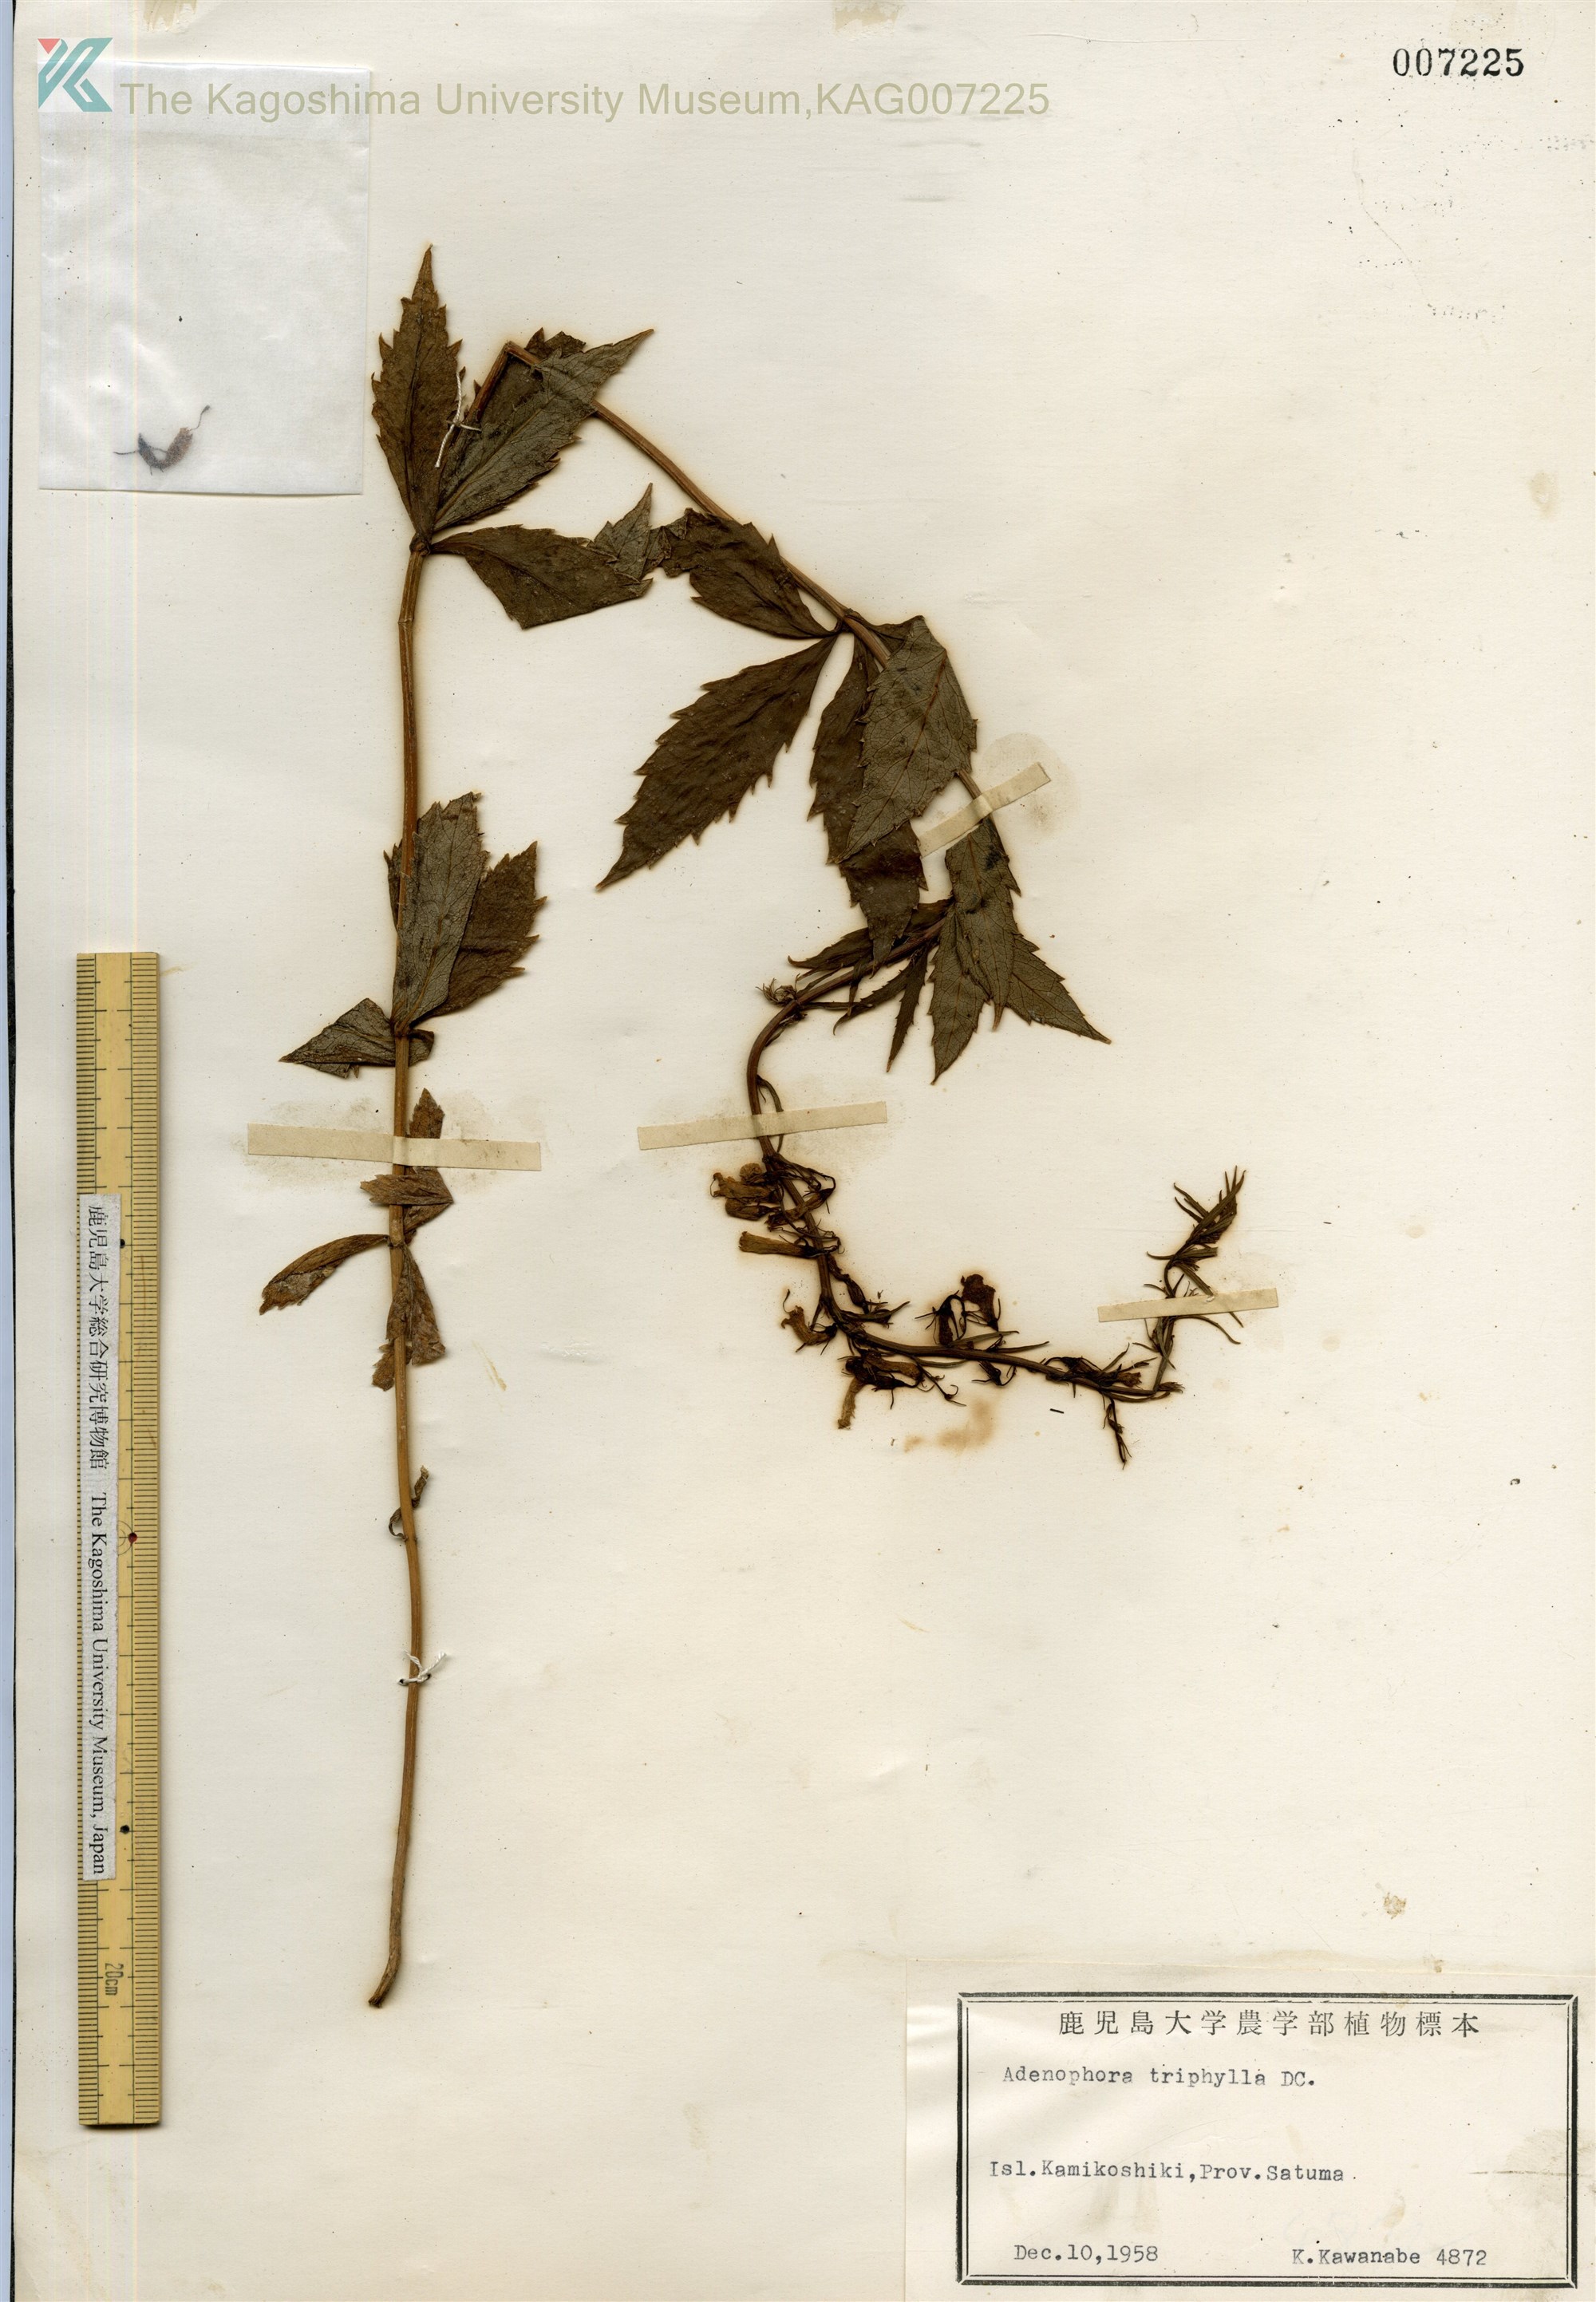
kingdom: Plantae
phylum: Tracheophyta
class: Magnoliopsida
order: Asterales
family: Campanulaceae
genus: Adenophora
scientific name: Adenophora triphylla
